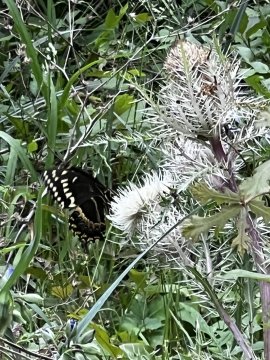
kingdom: Animalia
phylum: Arthropoda
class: Insecta
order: Lepidoptera
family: Papilionidae
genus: Pterourus
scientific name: Pterourus palamedes
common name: Palamedes Swallowtail
